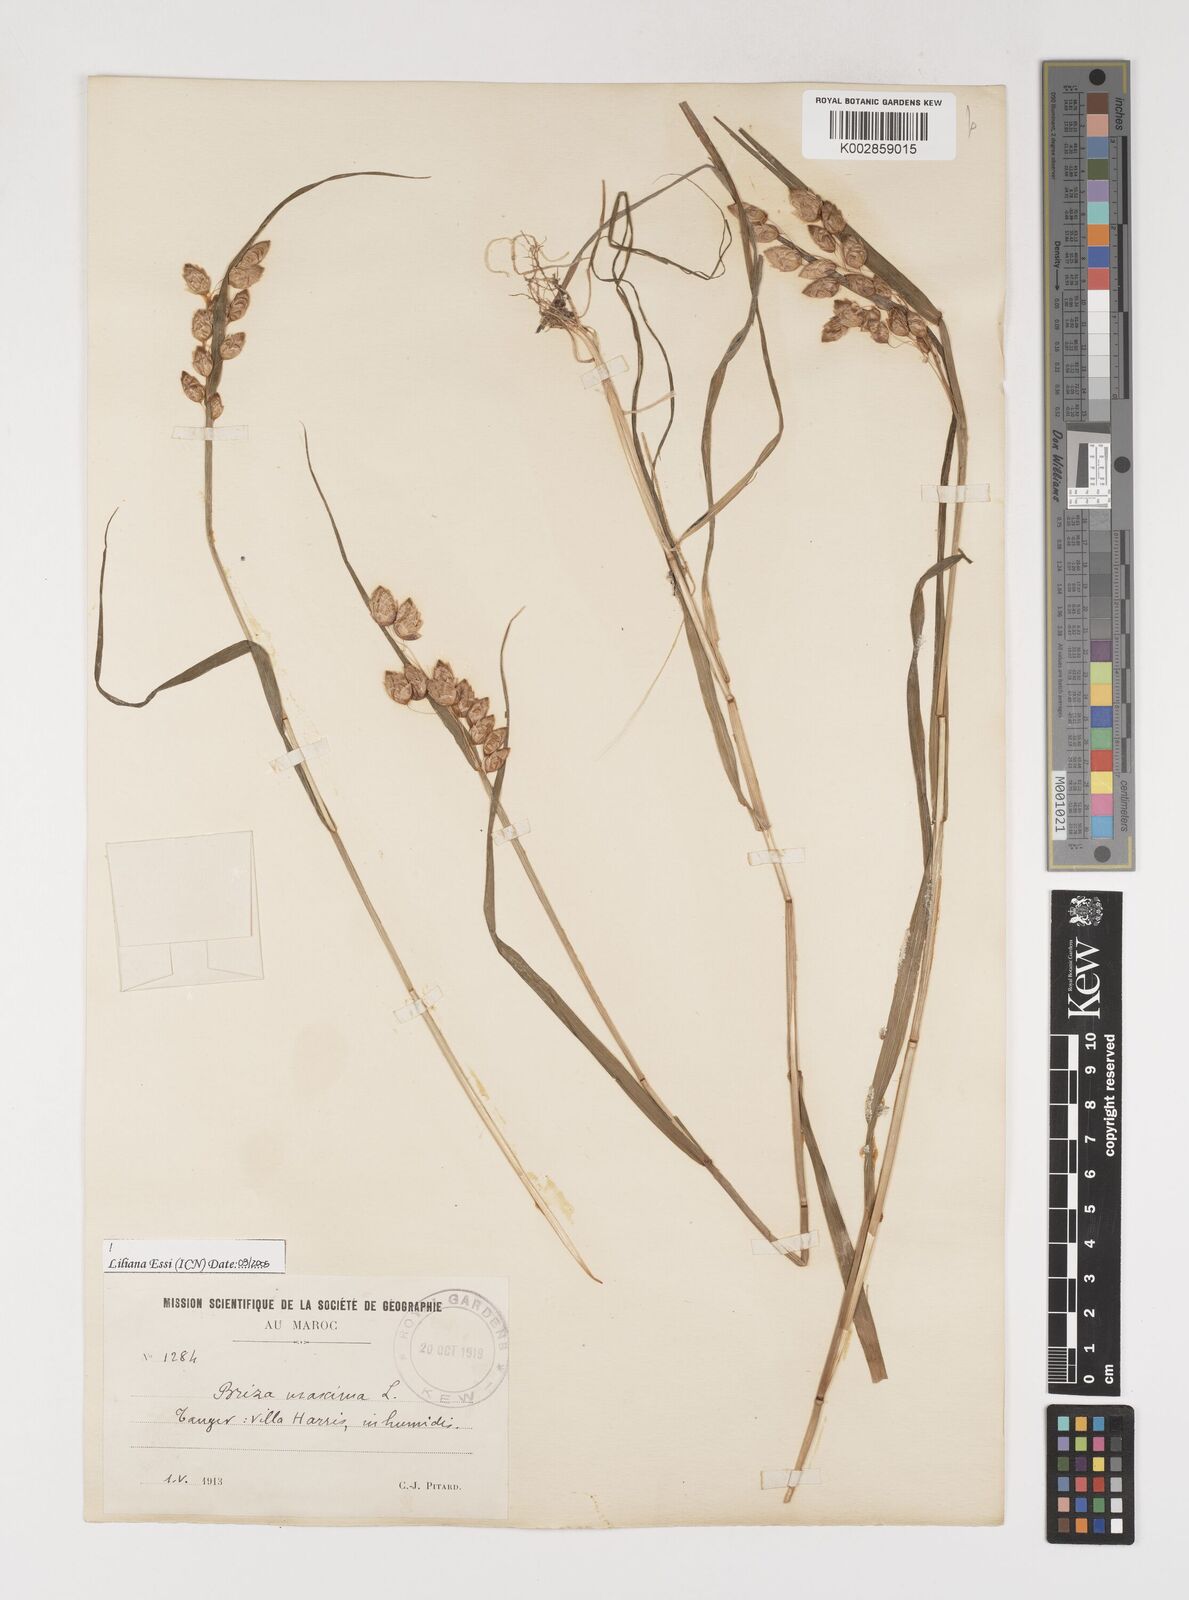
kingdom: Plantae
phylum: Tracheophyta
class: Liliopsida
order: Poales
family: Poaceae
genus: Briza
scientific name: Briza maxima
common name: Big quakinggrass
